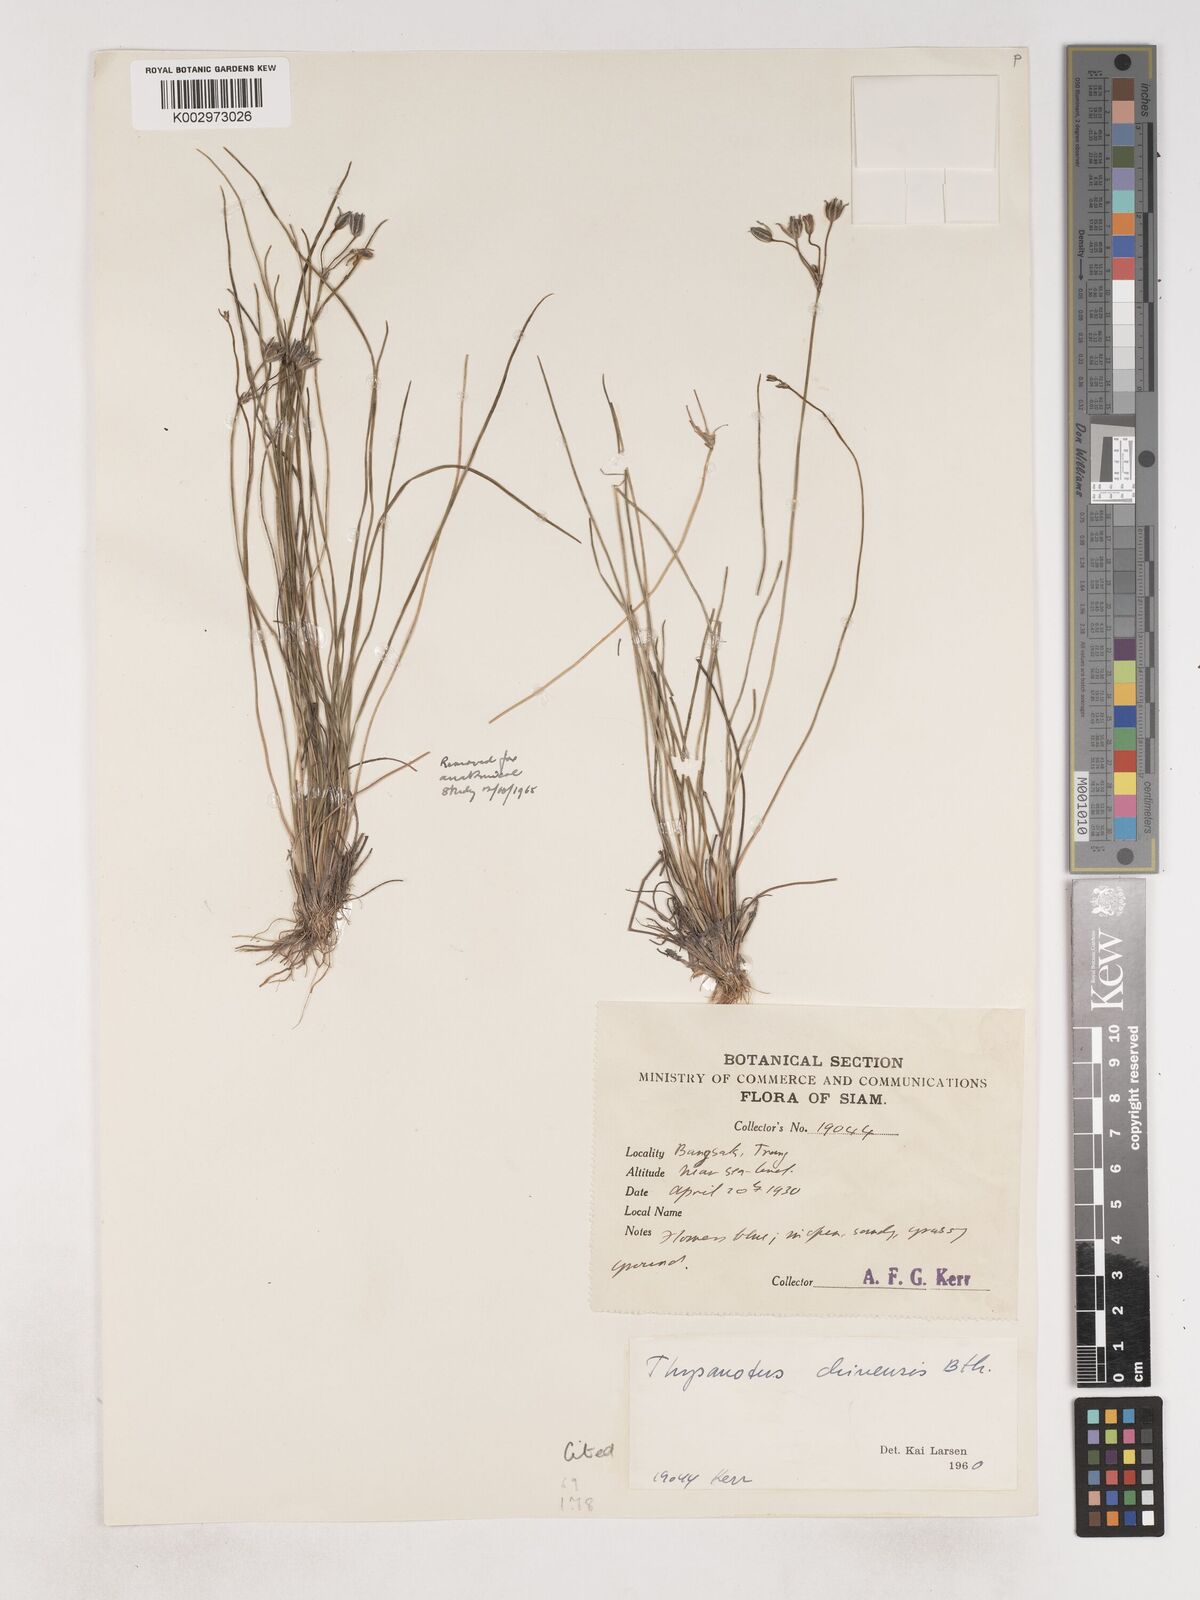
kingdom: Plantae
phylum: Tracheophyta
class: Liliopsida
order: Asparagales
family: Asparagaceae
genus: Thysanotus
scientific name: Thysanotus chinensis
